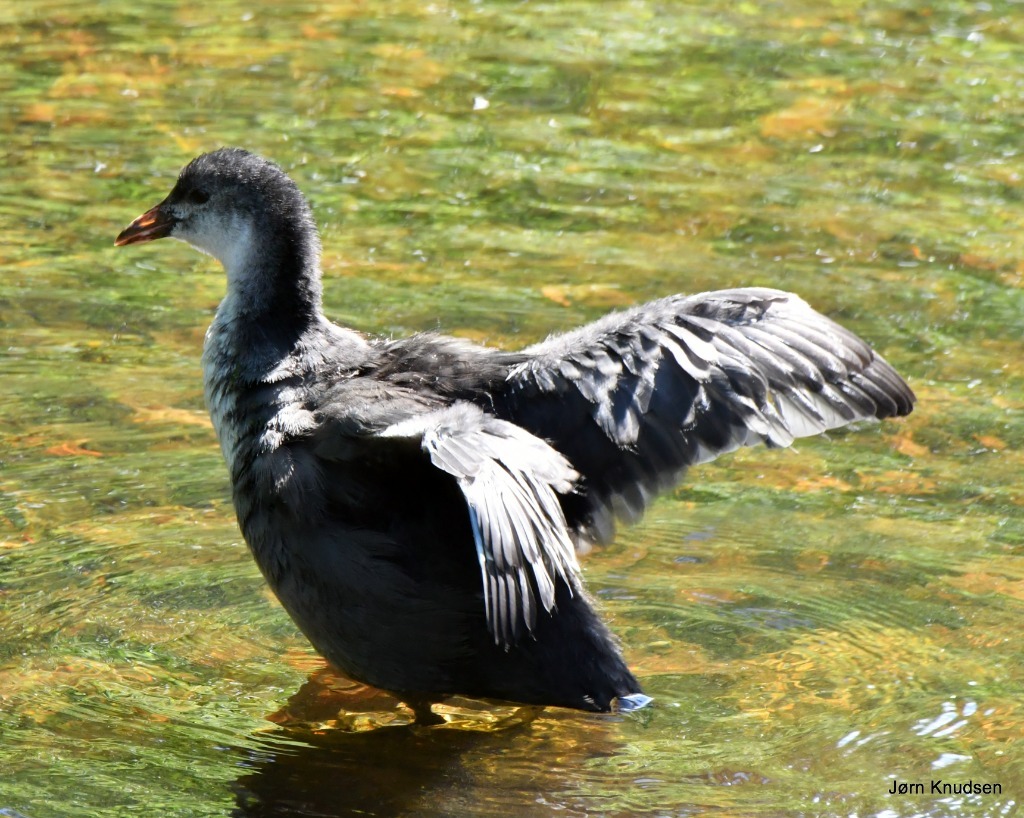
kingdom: Animalia
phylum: Chordata
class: Aves
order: Gruiformes
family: Rallidae
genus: Fulica
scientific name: Fulica atra
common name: Blishøne
